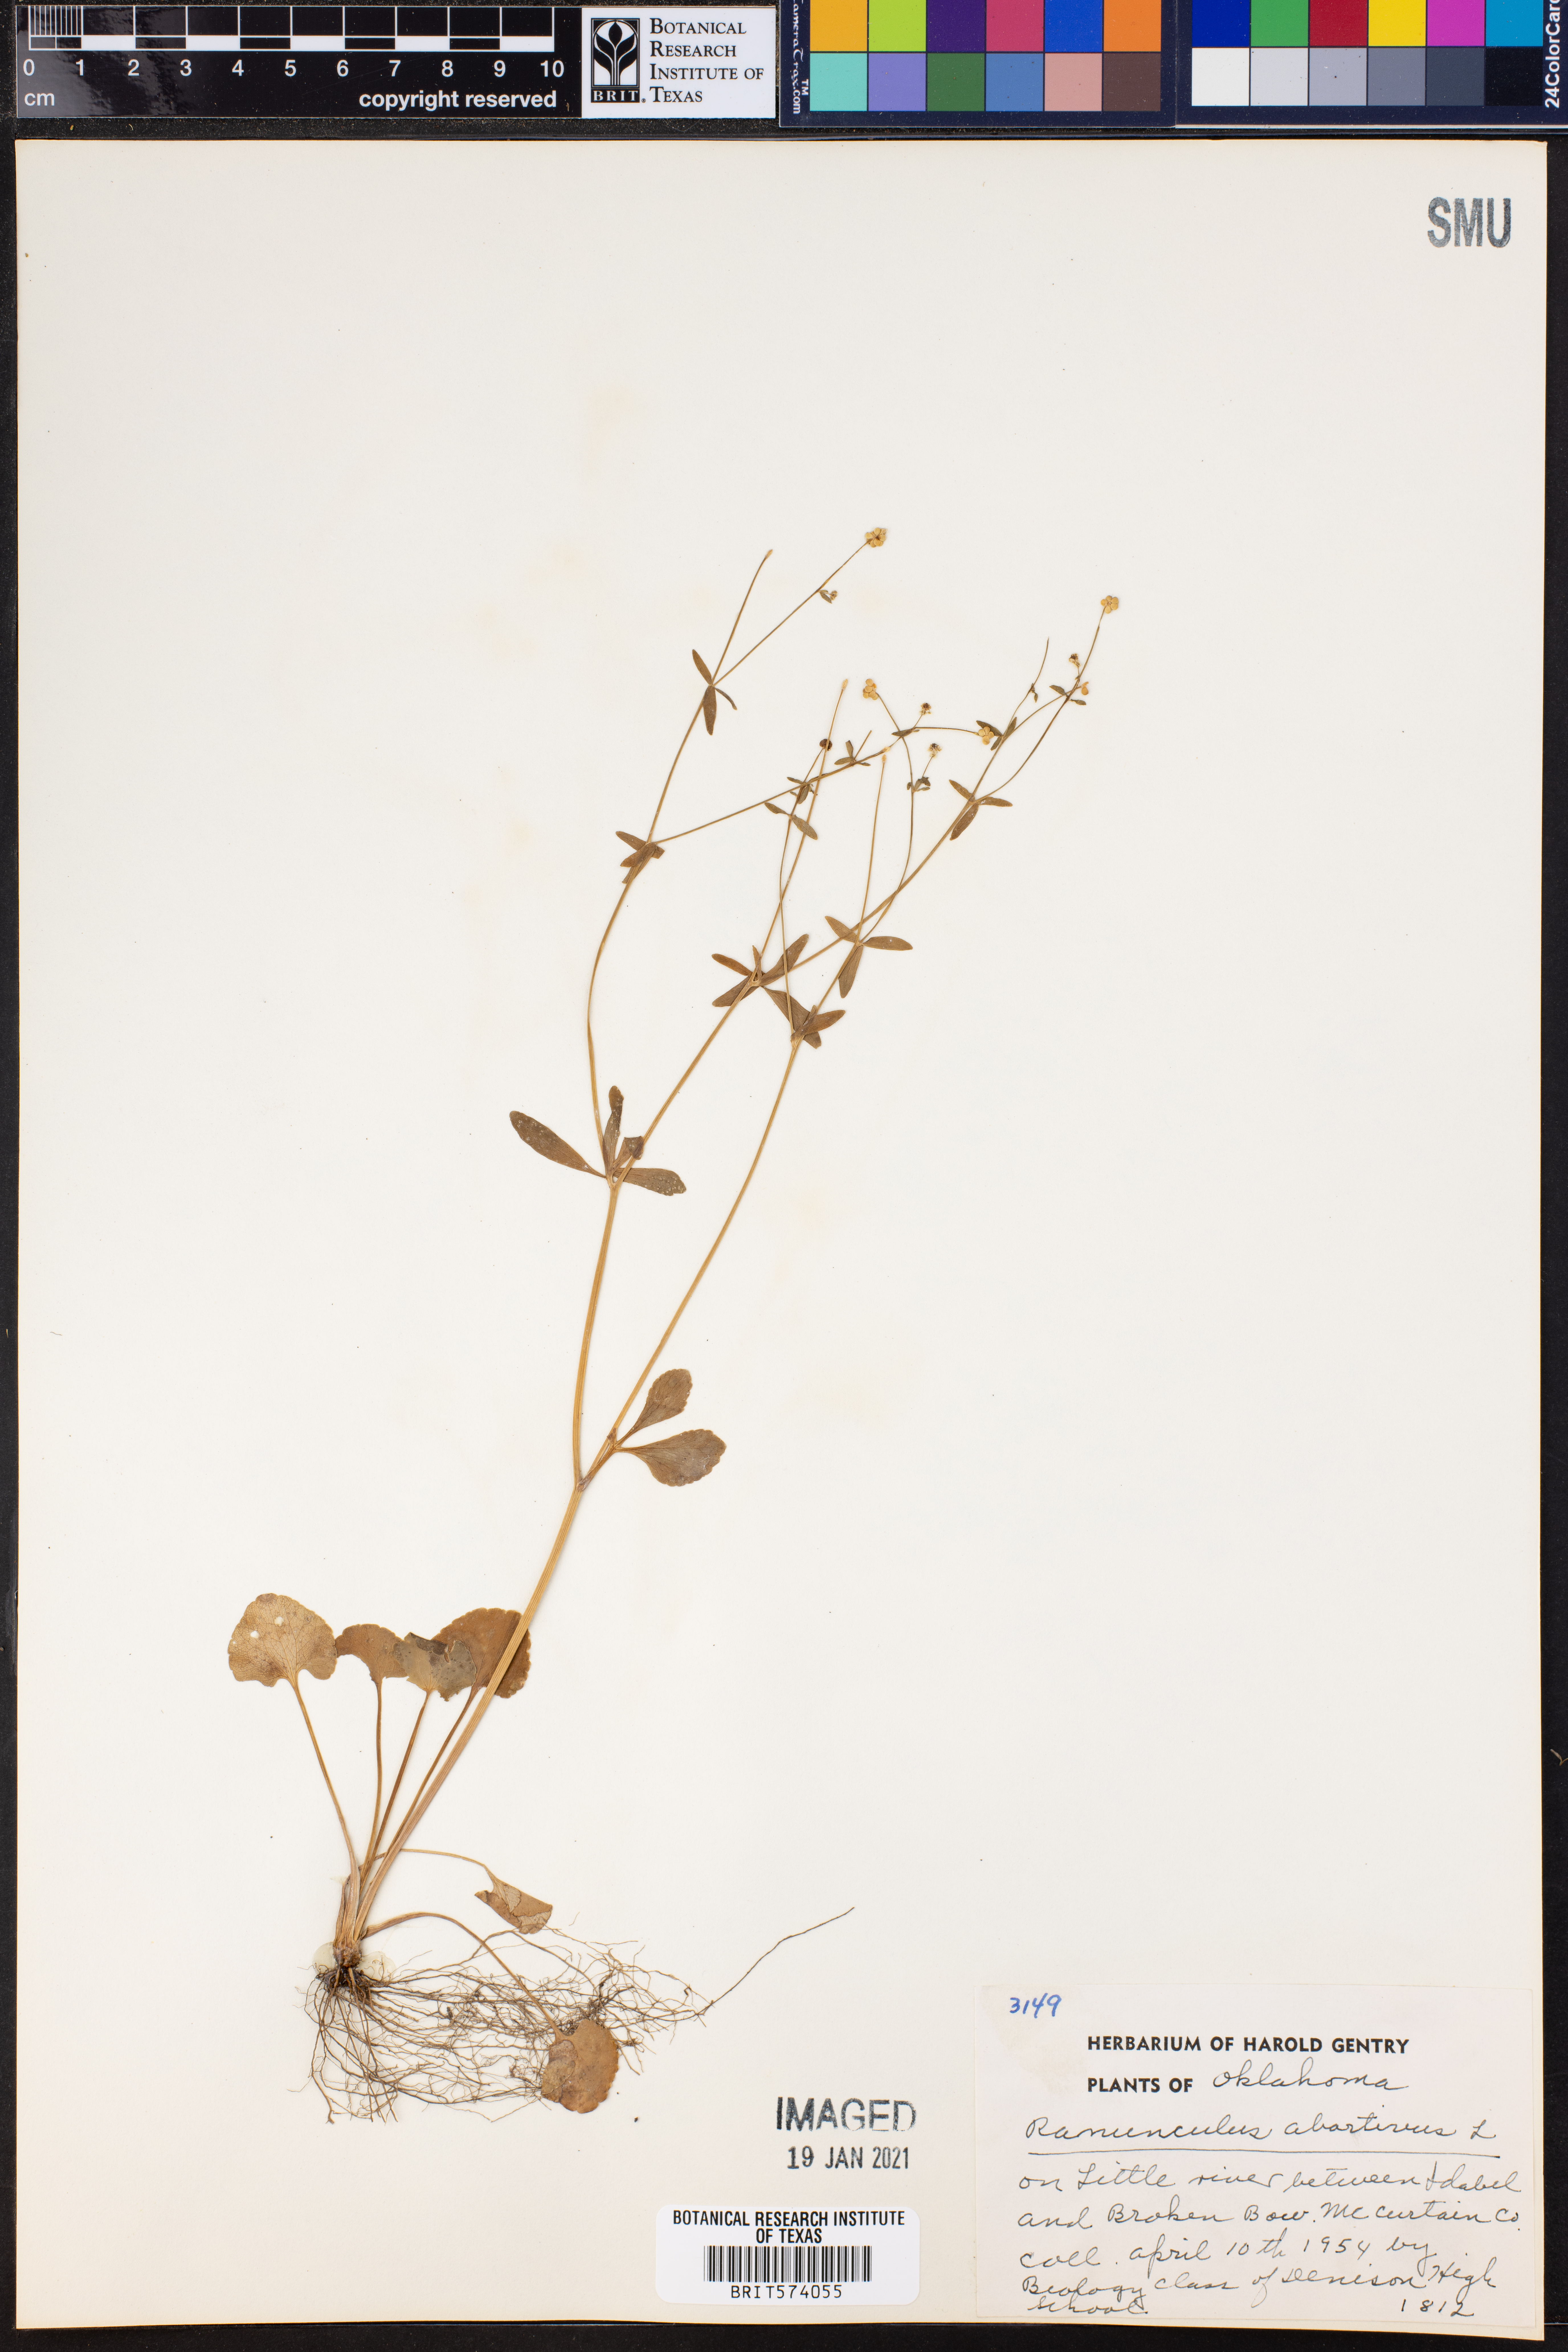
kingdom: Plantae
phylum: Tracheophyta
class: Magnoliopsida
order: Ranunculales
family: Ranunculaceae
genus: Ranunculus
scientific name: Ranunculus abortivus
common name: Early wood buttercup
